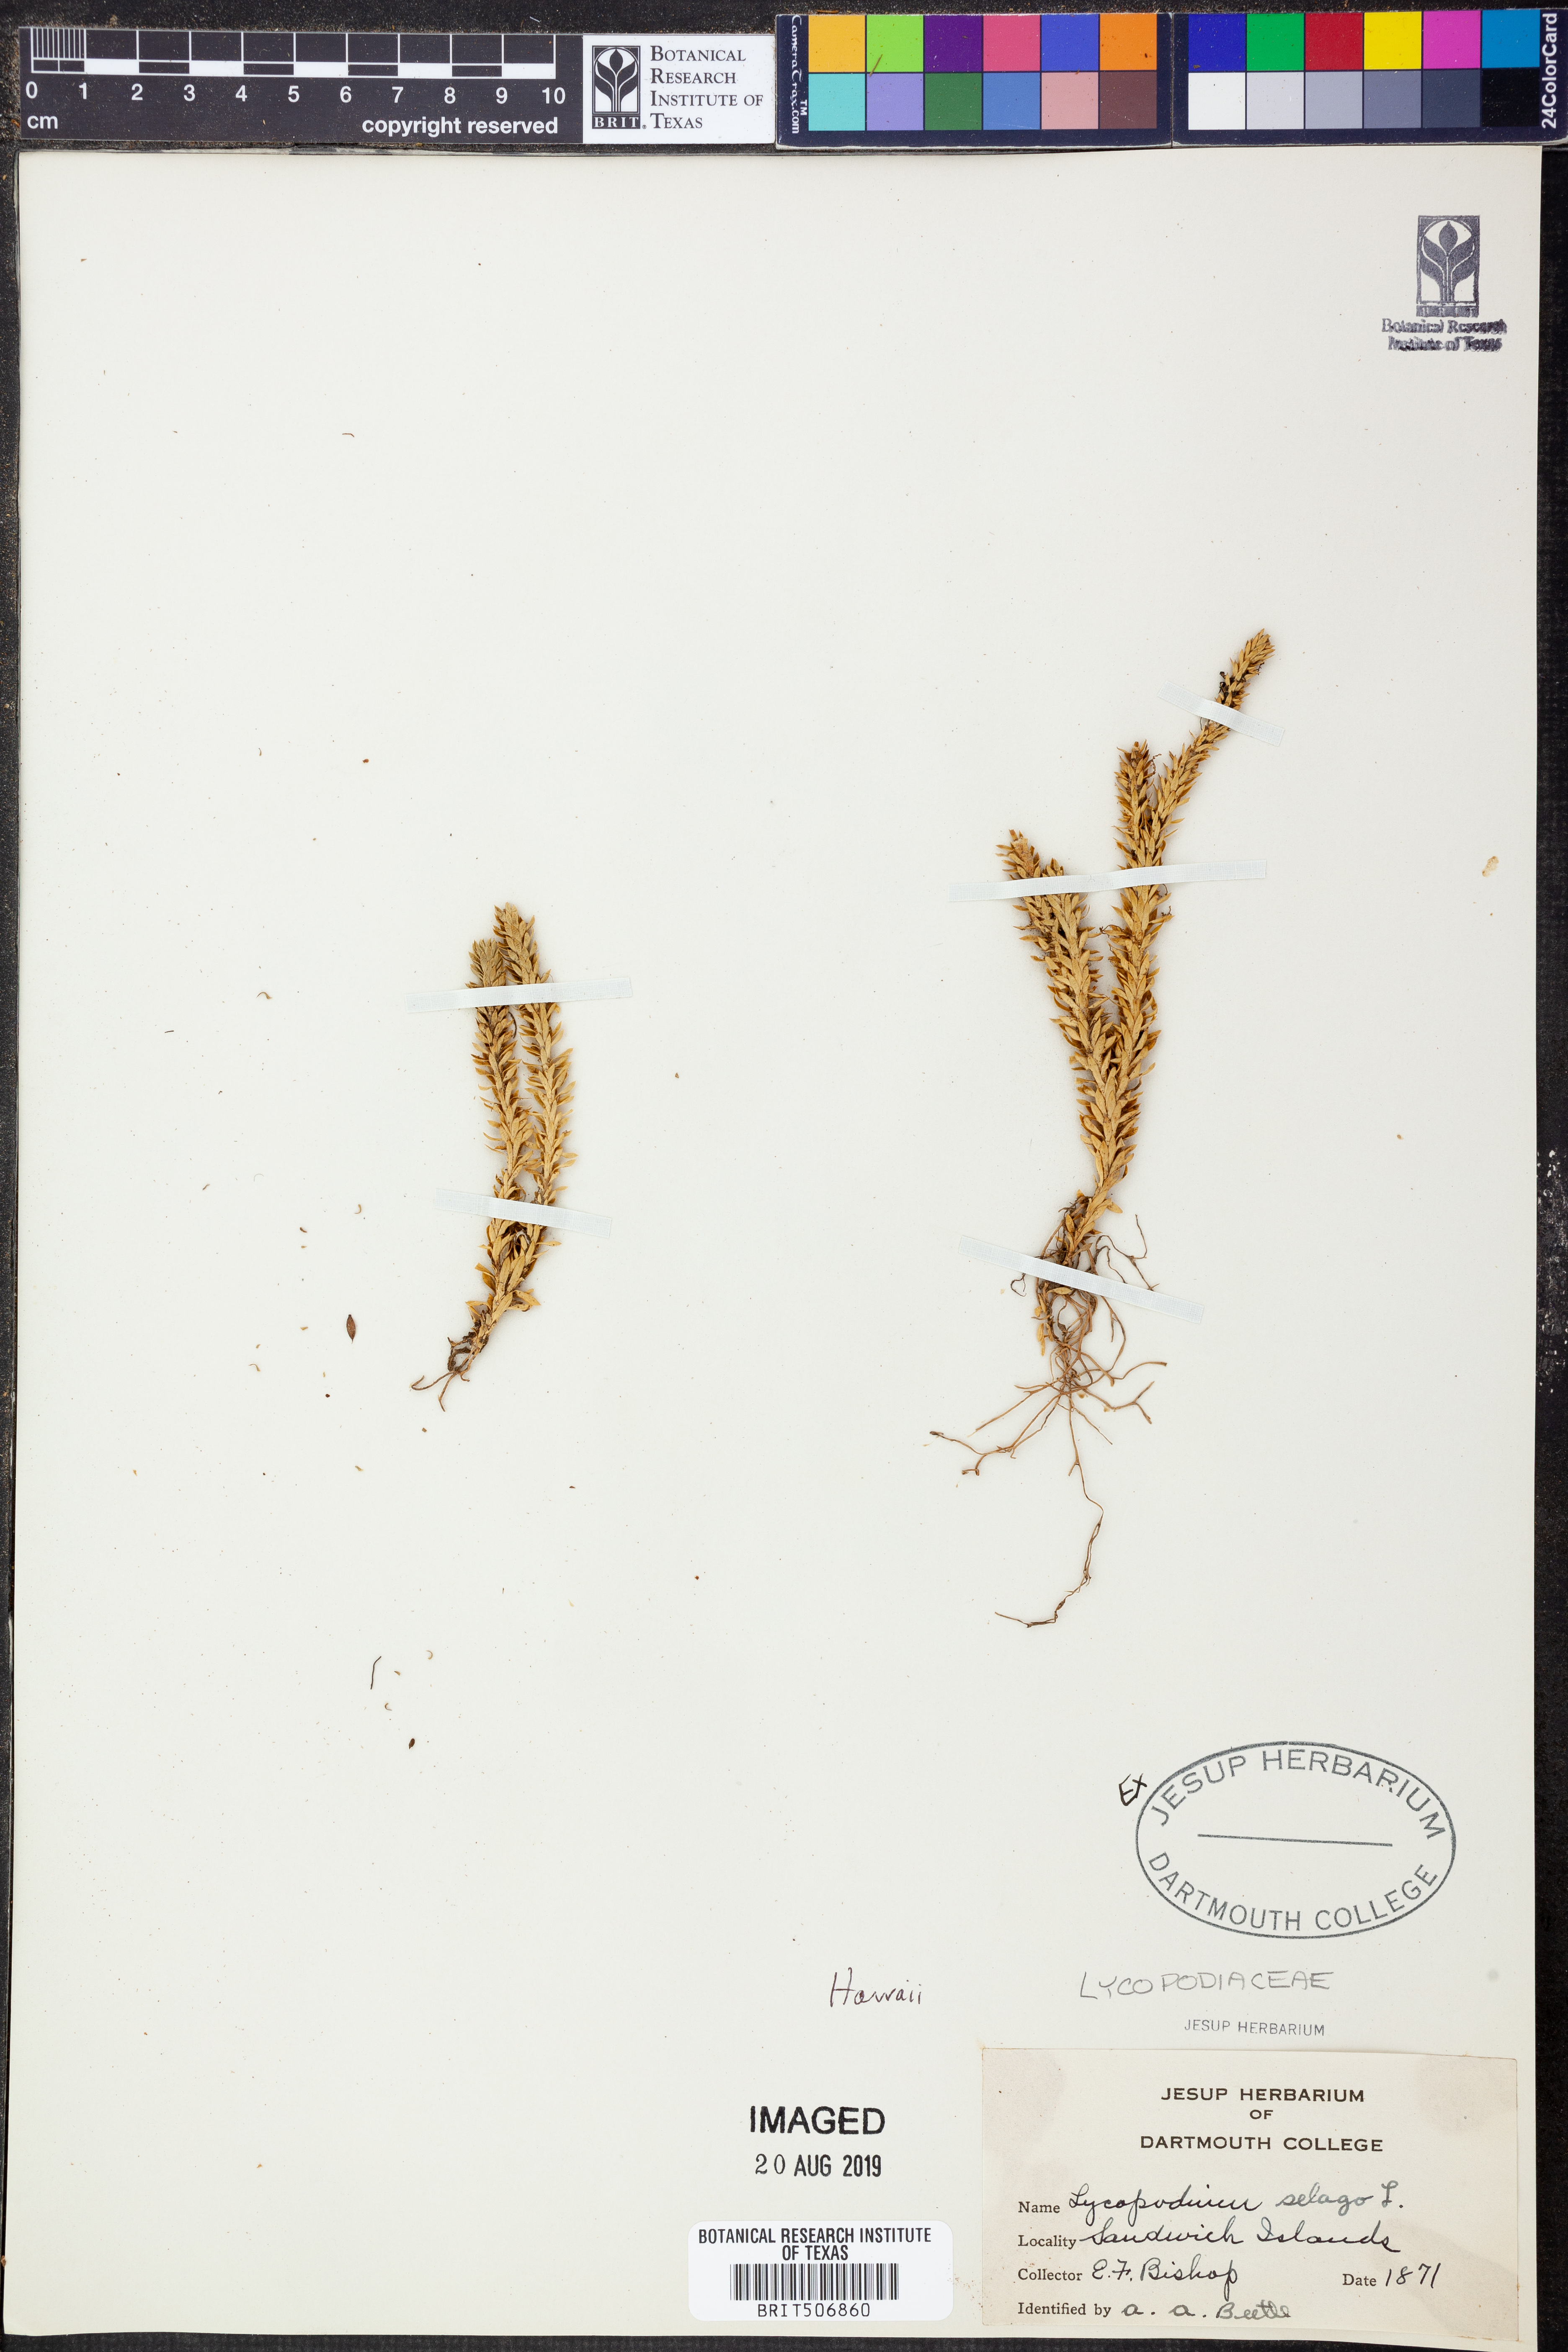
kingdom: Plantae
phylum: Tracheophyta
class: Lycopodiopsida
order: Lycopodiales
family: Lycopodiaceae
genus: Huperzia
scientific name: Huperzia selago
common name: Northern firmoss
